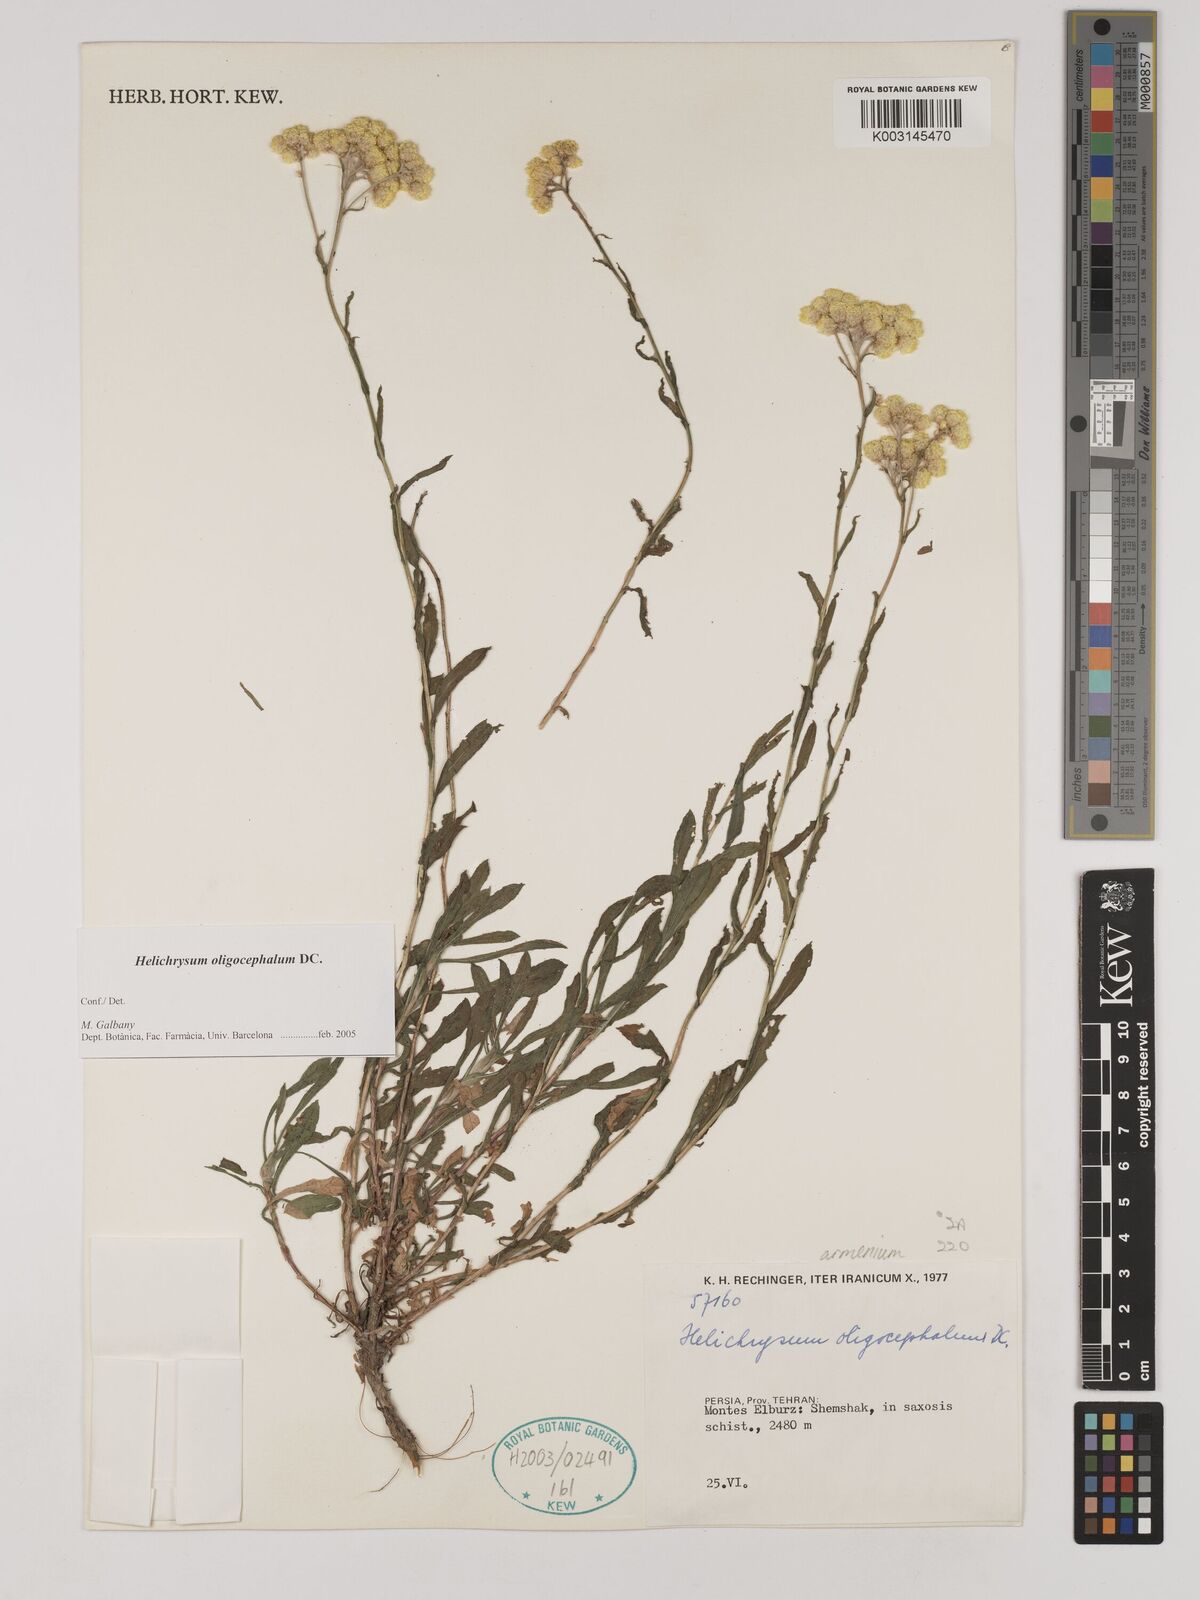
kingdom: Plantae
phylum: Tracheophyta
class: Magnoliopsida
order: Asterales
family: Asteraceae
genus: Helichrysum
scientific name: Helichrysum armenium
